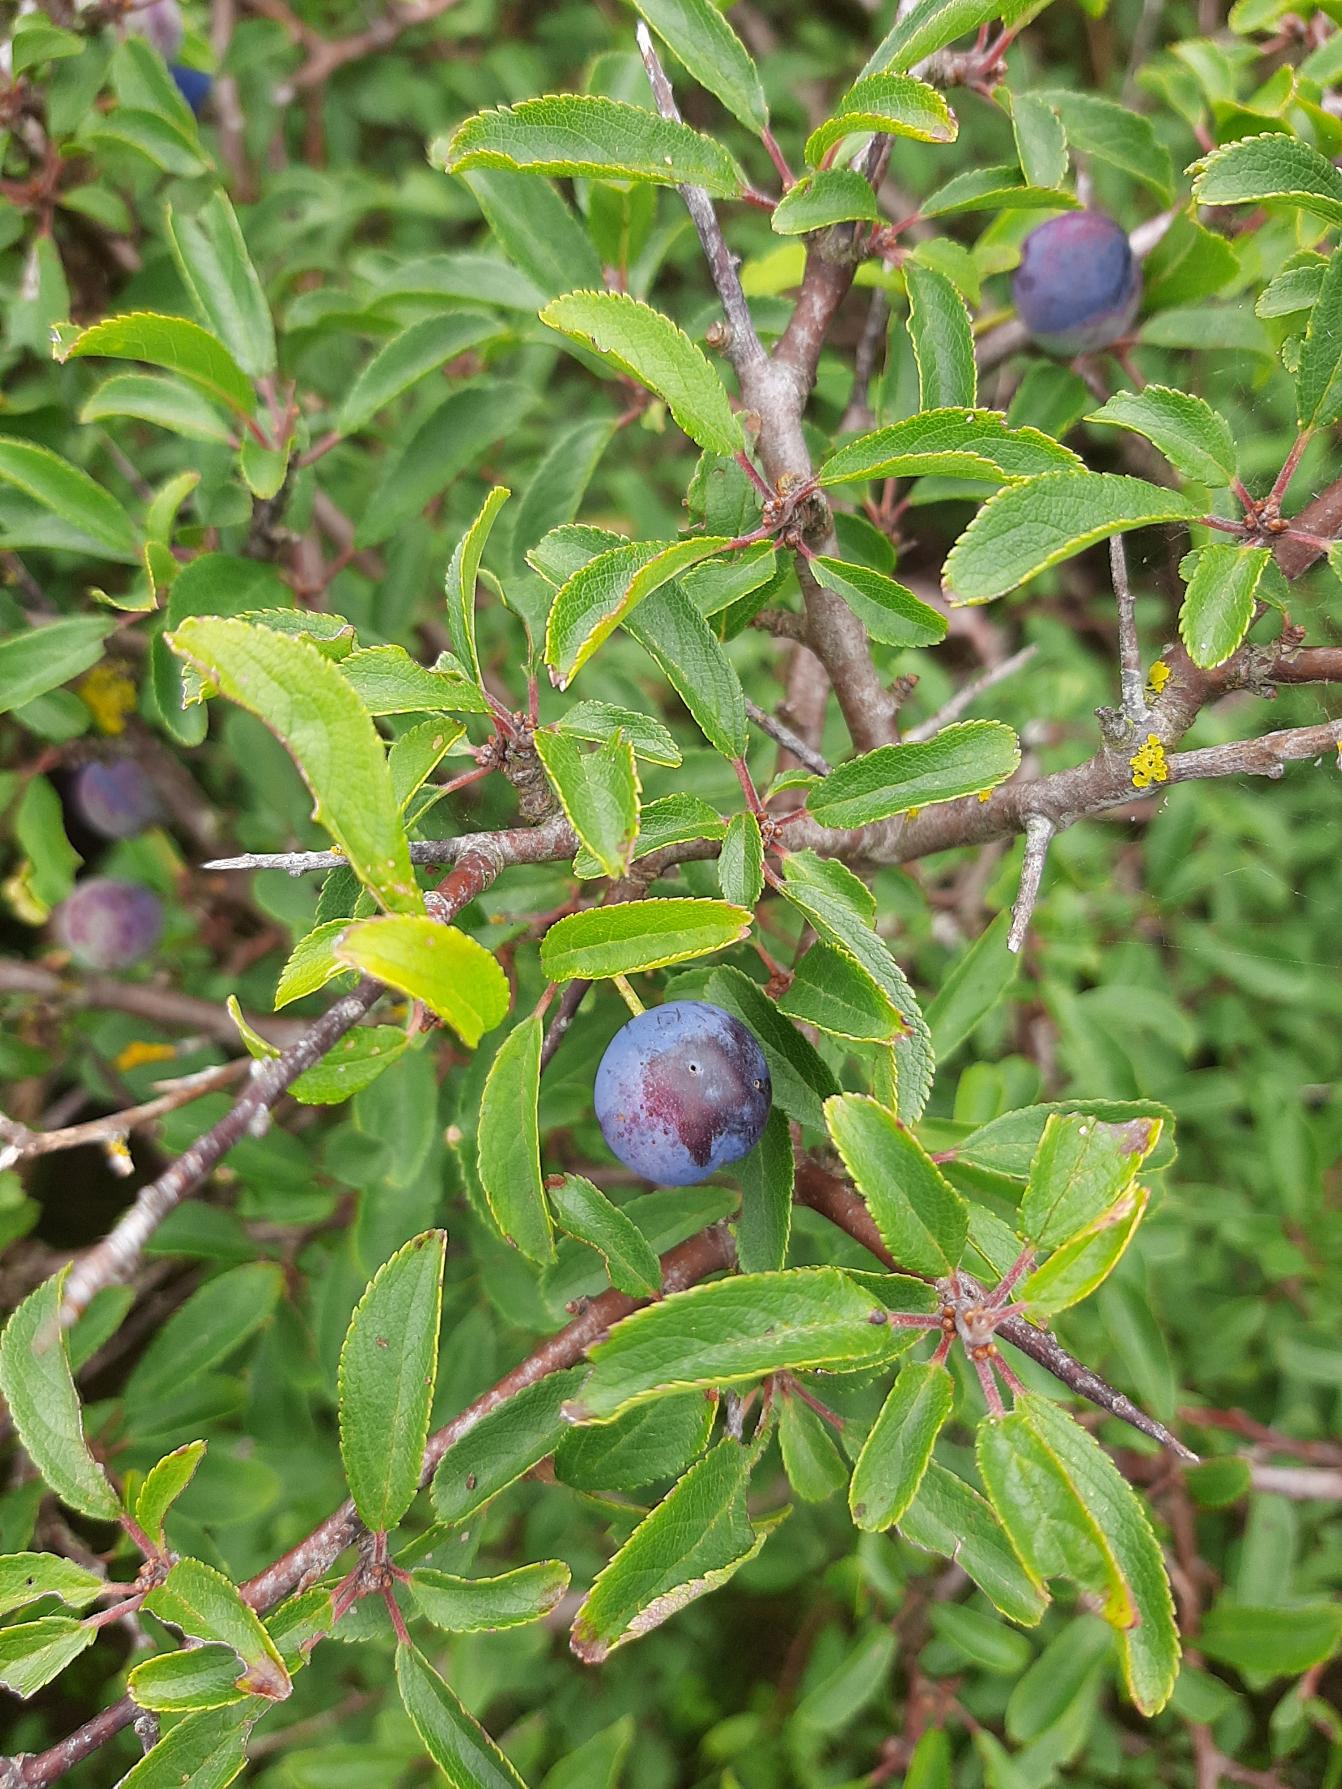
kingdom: Plantae
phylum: Tracheophyta
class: Magnoliopsida
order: Rosales
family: Rosaceae
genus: Prunus
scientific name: Prunus spinosa
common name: Slåen
